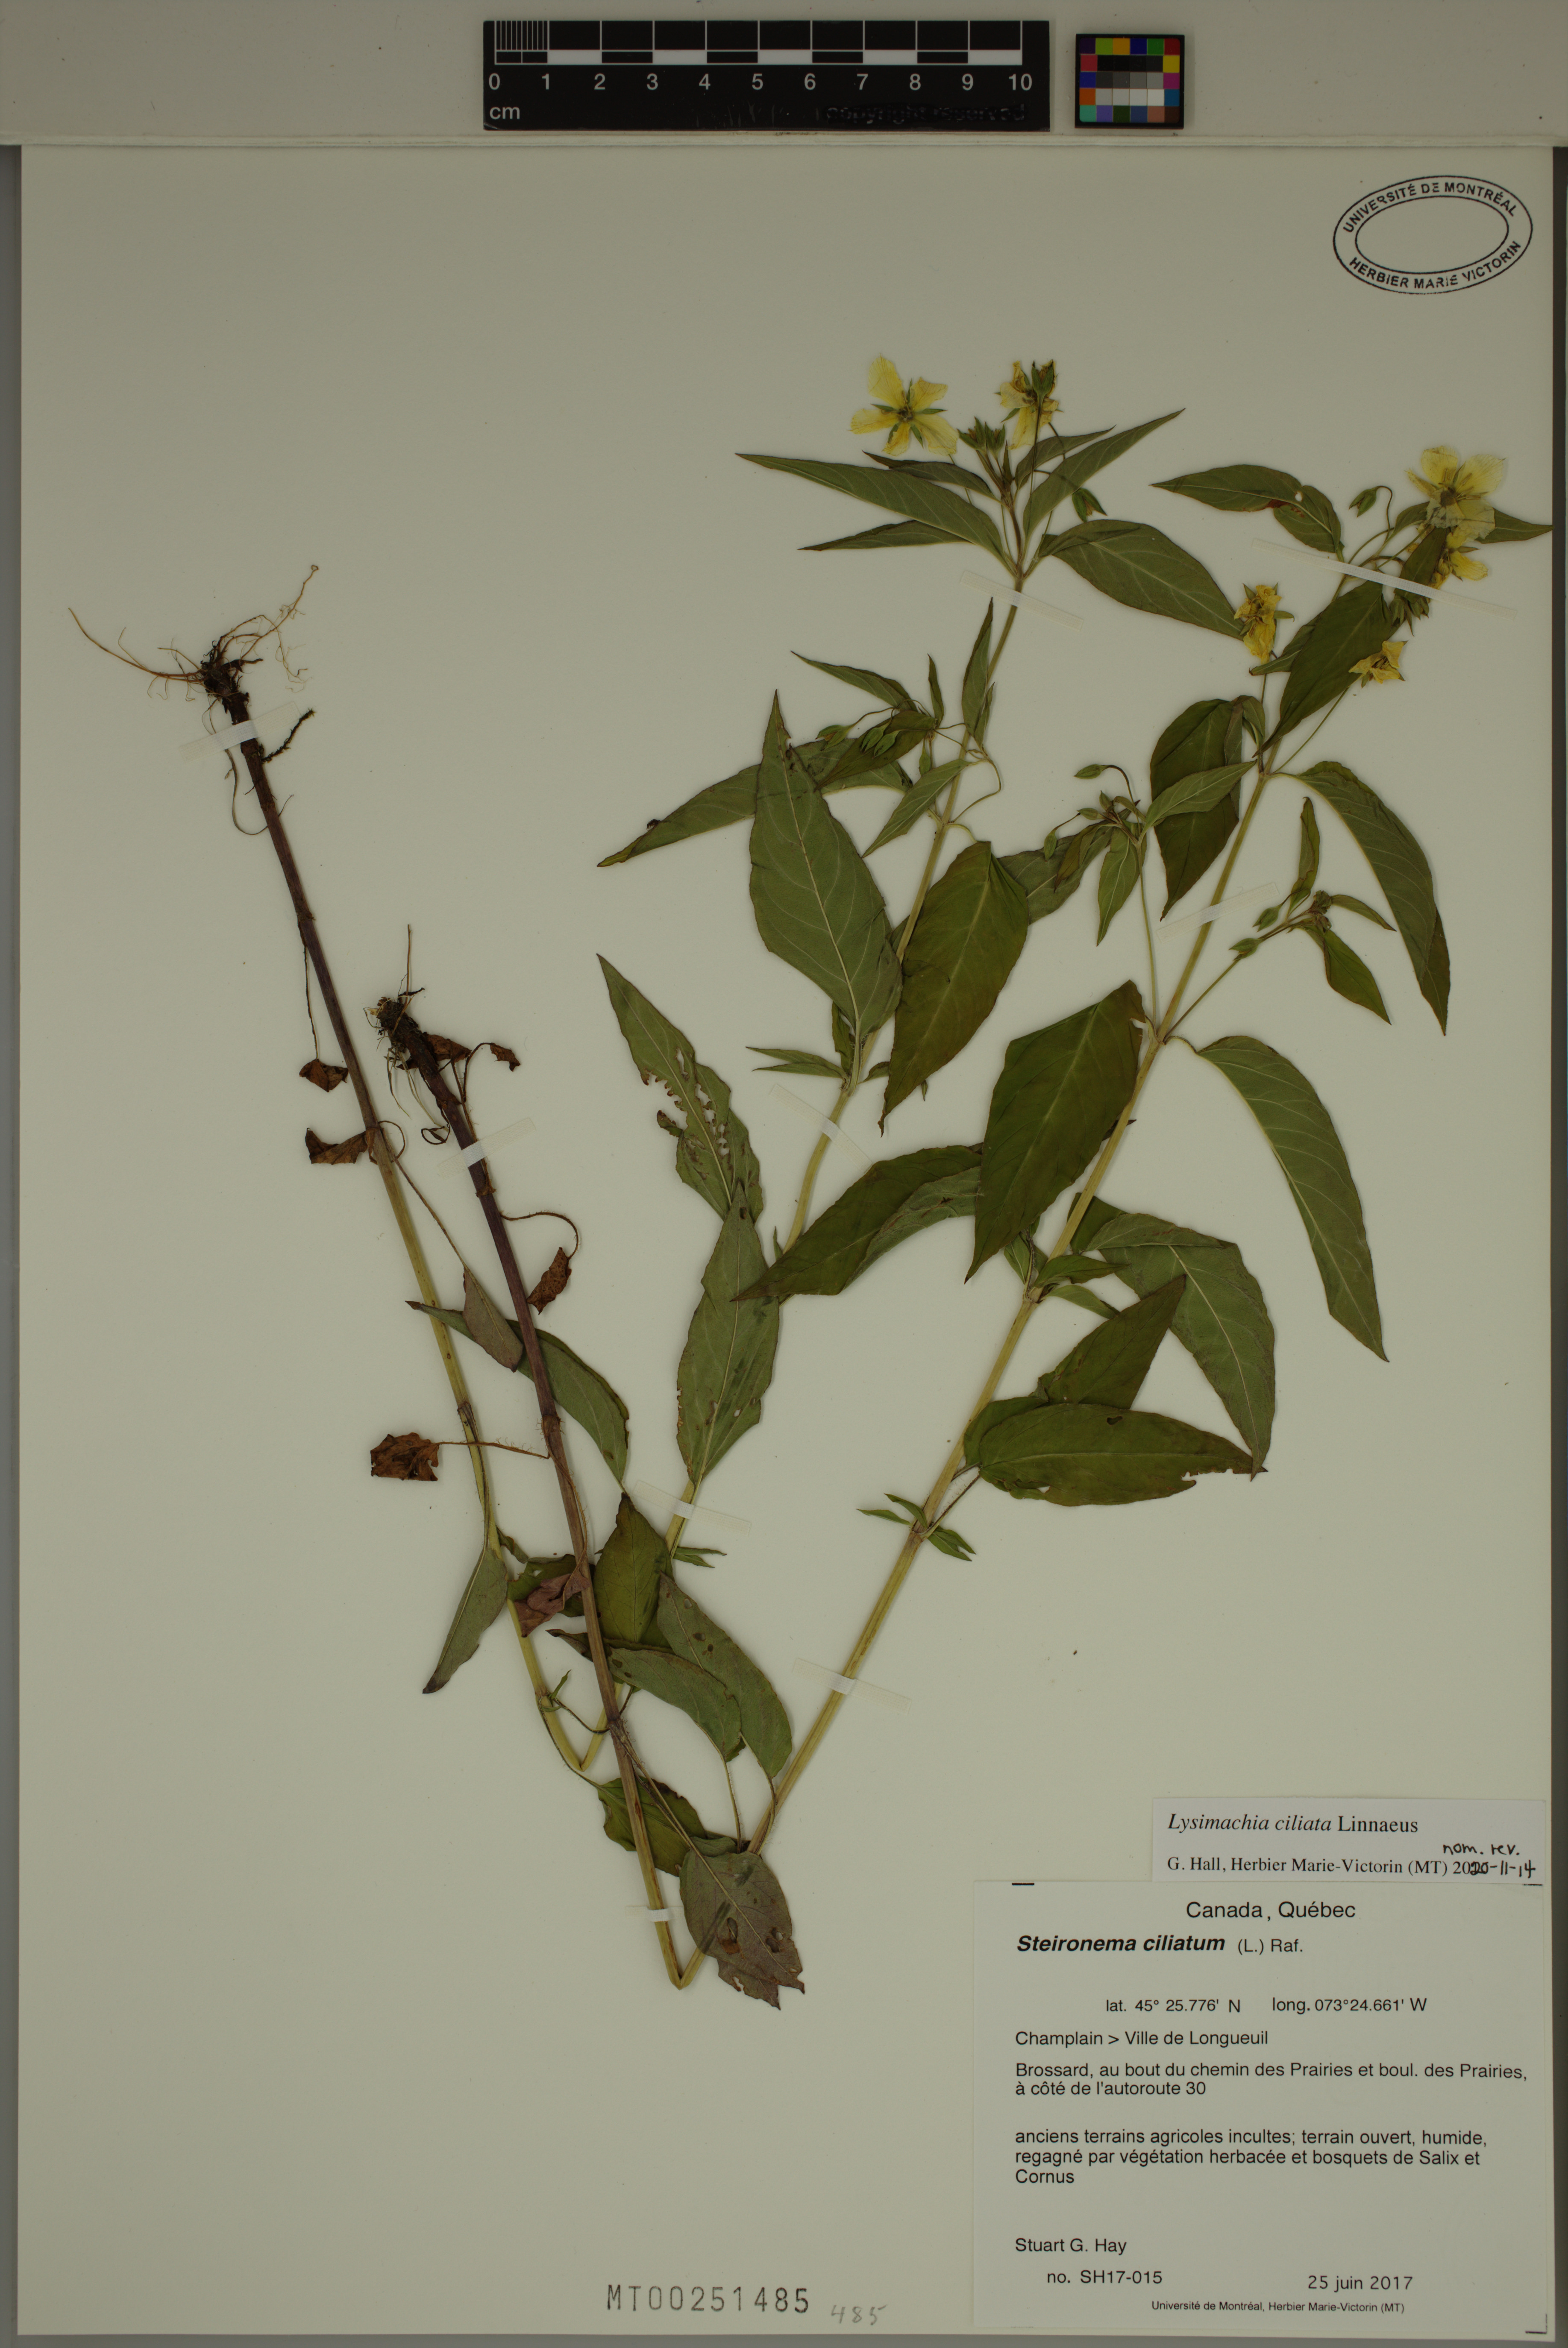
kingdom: Plantae
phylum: Tracheophyta
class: Magnoliopsida
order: Ericales
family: Primulaceae
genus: Lysimachia
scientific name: Lysimachia ciliata
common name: Fringed loosestrife
